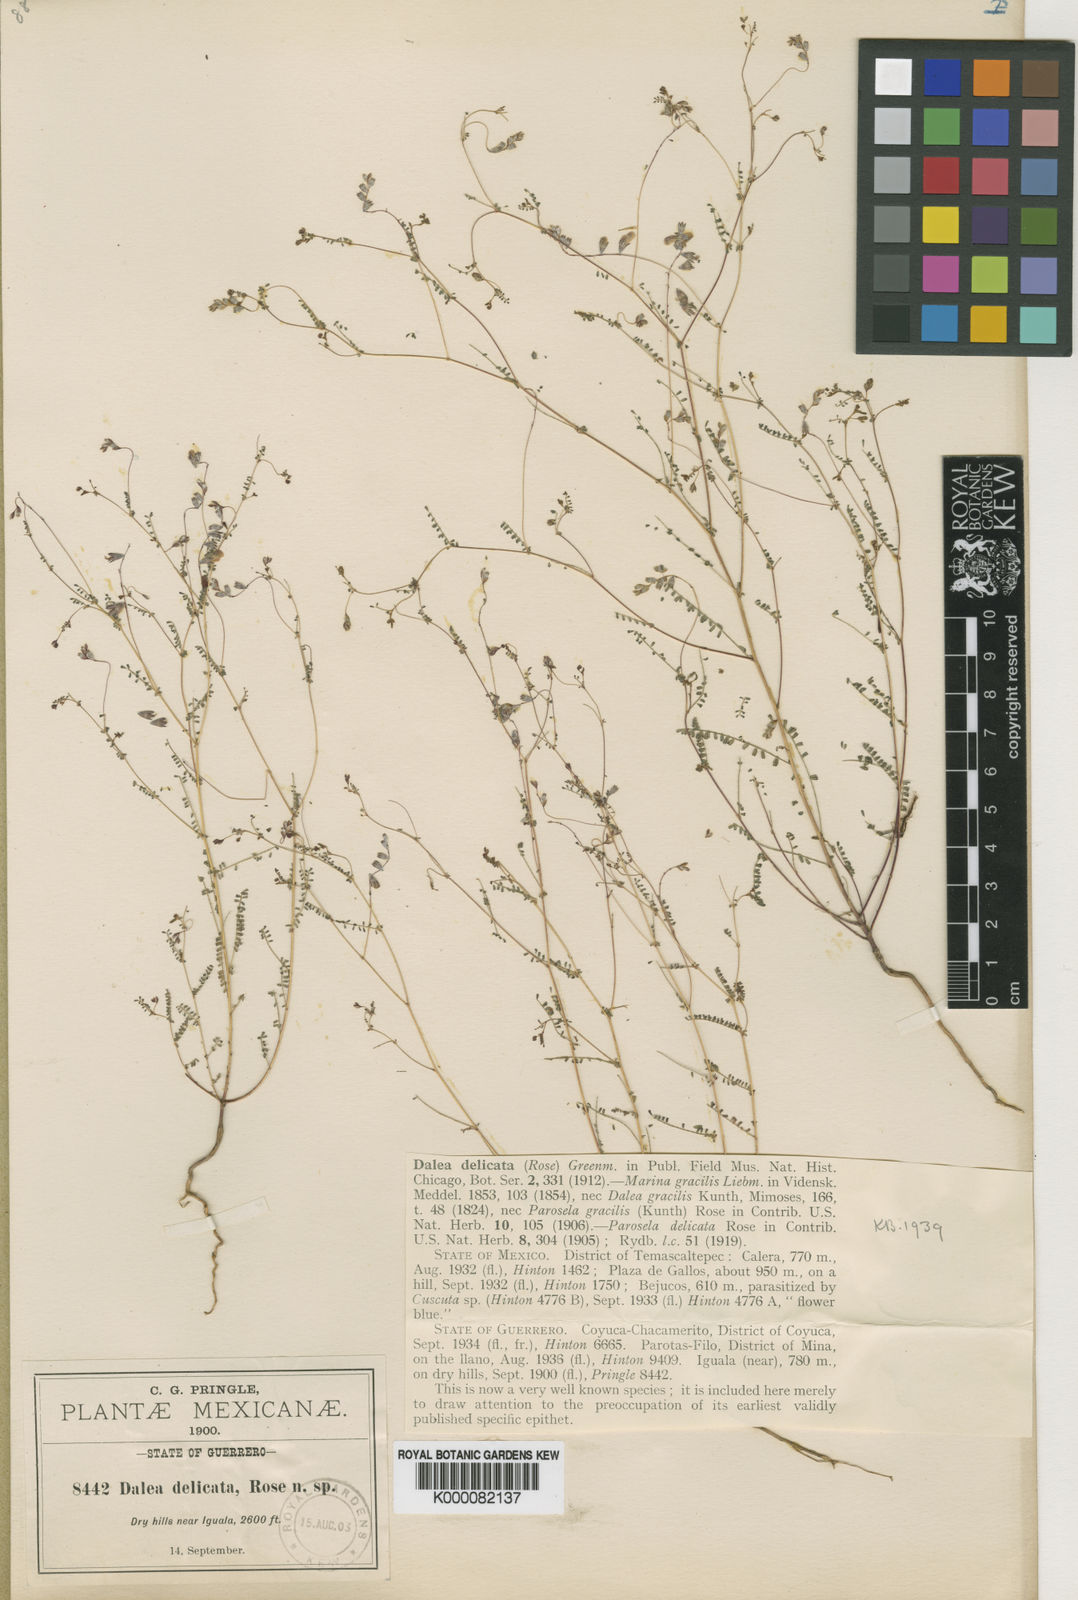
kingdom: Plantae
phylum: Tracheophyta
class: Magnoliopsida
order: Fabales
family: Fabaceae
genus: Marina
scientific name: Marina gracilis
